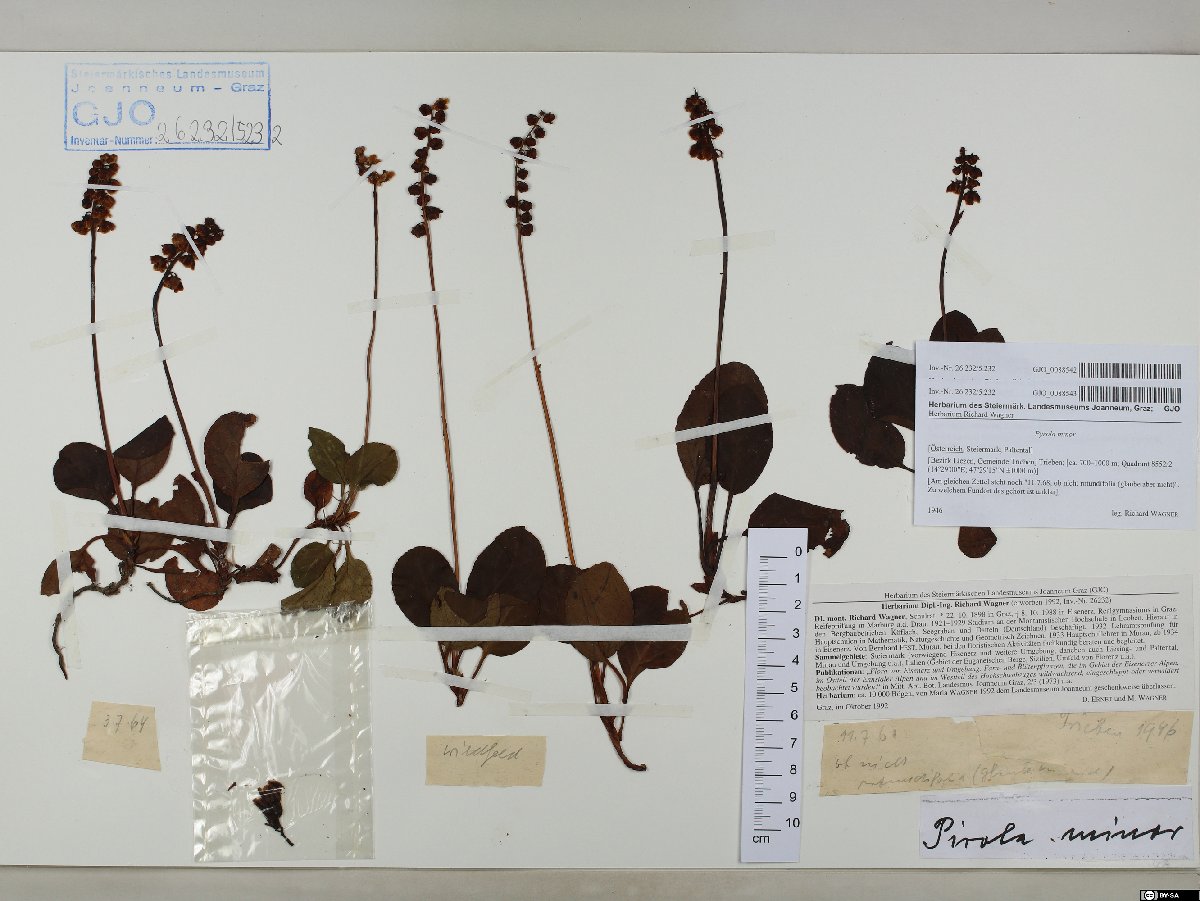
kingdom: Plantae
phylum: Tracheophyta
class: Magnoliopsida
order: Ericales
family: Ericaceae
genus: Pyrola
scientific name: Pyrola minor
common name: Common wintergreen
